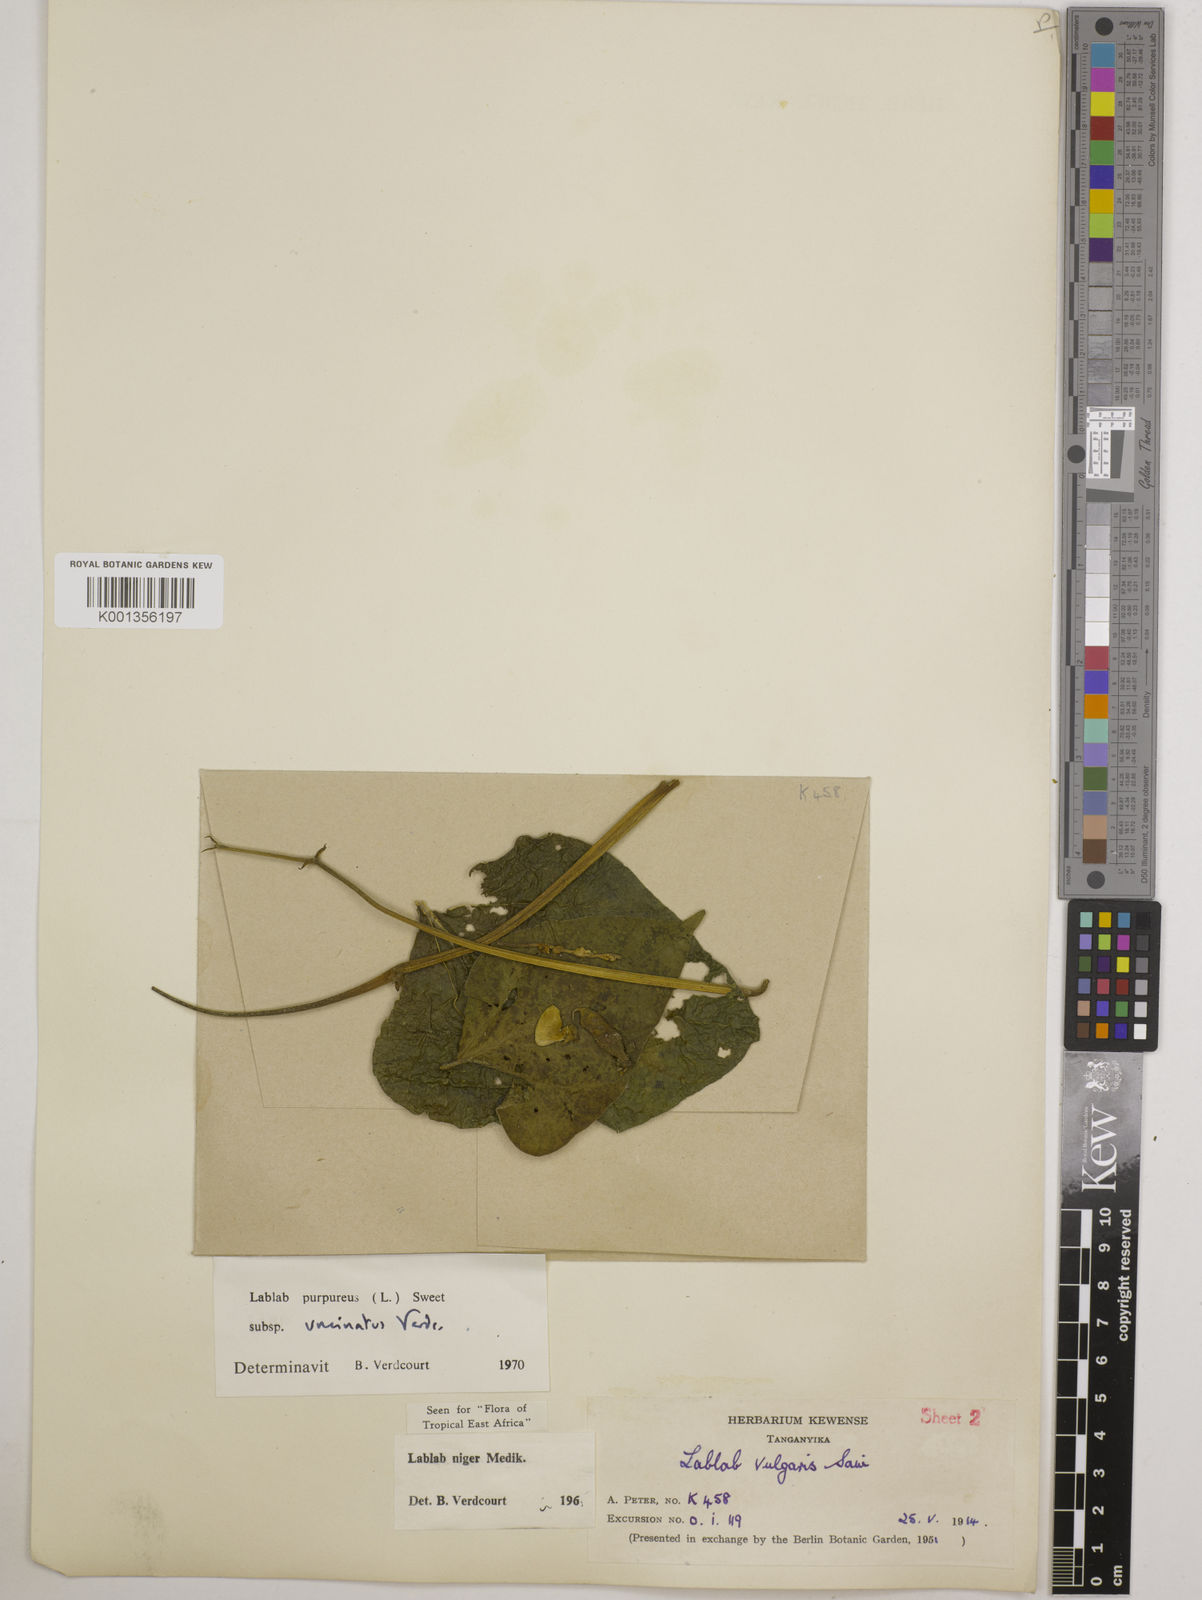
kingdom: Plantae
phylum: Tracheophyta
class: Magnoliopsida
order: Fabales
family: Fabaceae
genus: Lablab
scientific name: Lablab purpureus
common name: Lablab-bean
